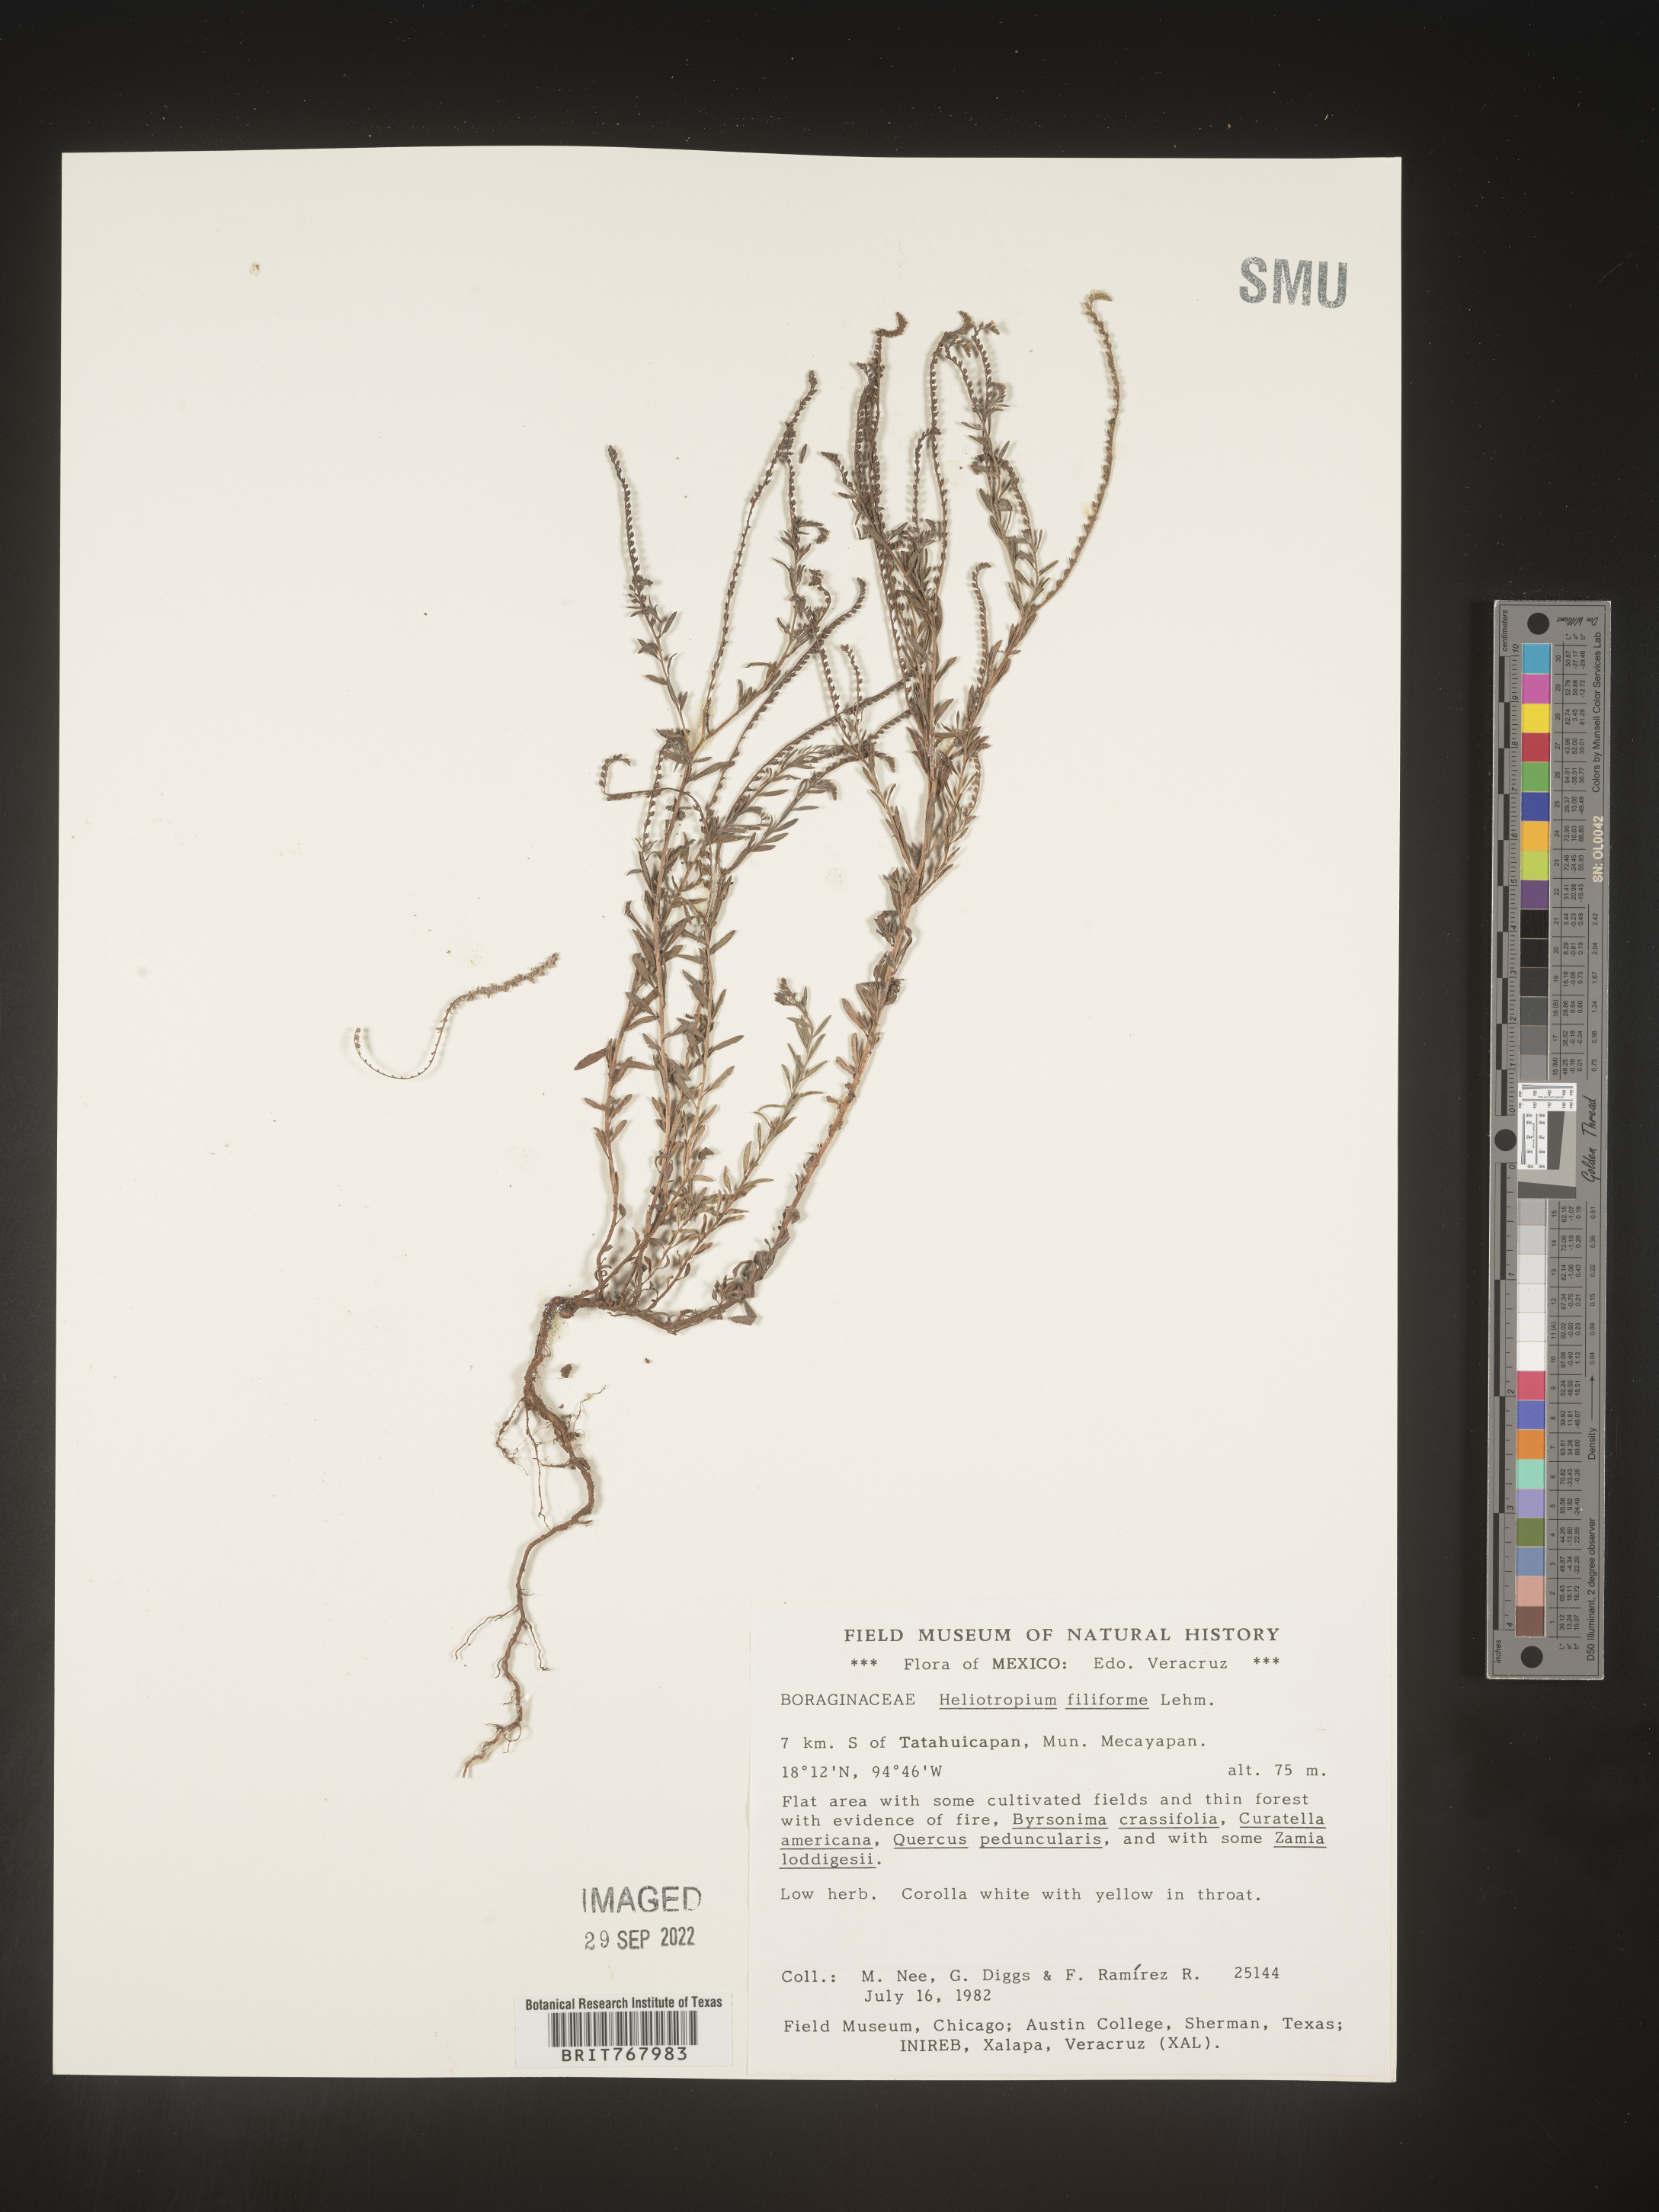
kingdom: Plantae
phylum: Tracheophyta
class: Magnoliopsida
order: Boraginales
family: Heliotropiaceae
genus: Heliotropium
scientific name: Heliotropium
